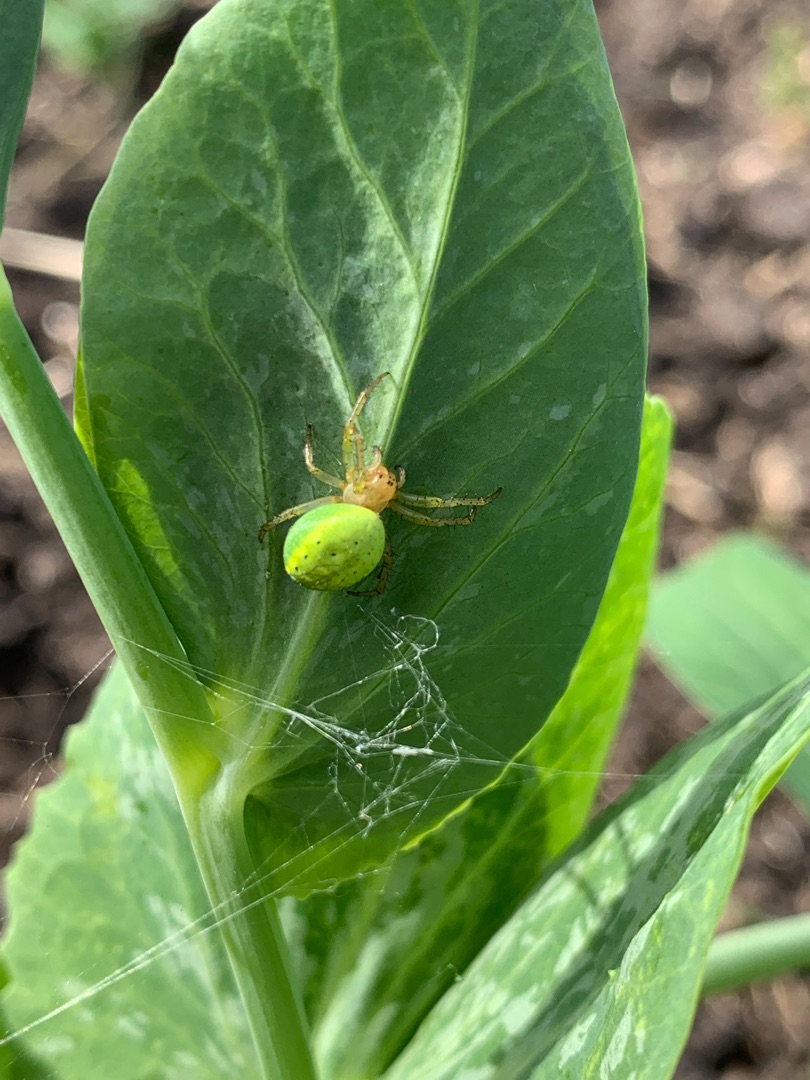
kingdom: Animalia
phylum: Arthropoda
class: Arachnida
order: Araneae
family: Araneidae
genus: Araniella
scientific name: Araniella
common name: Agurkeedderkopslægten
